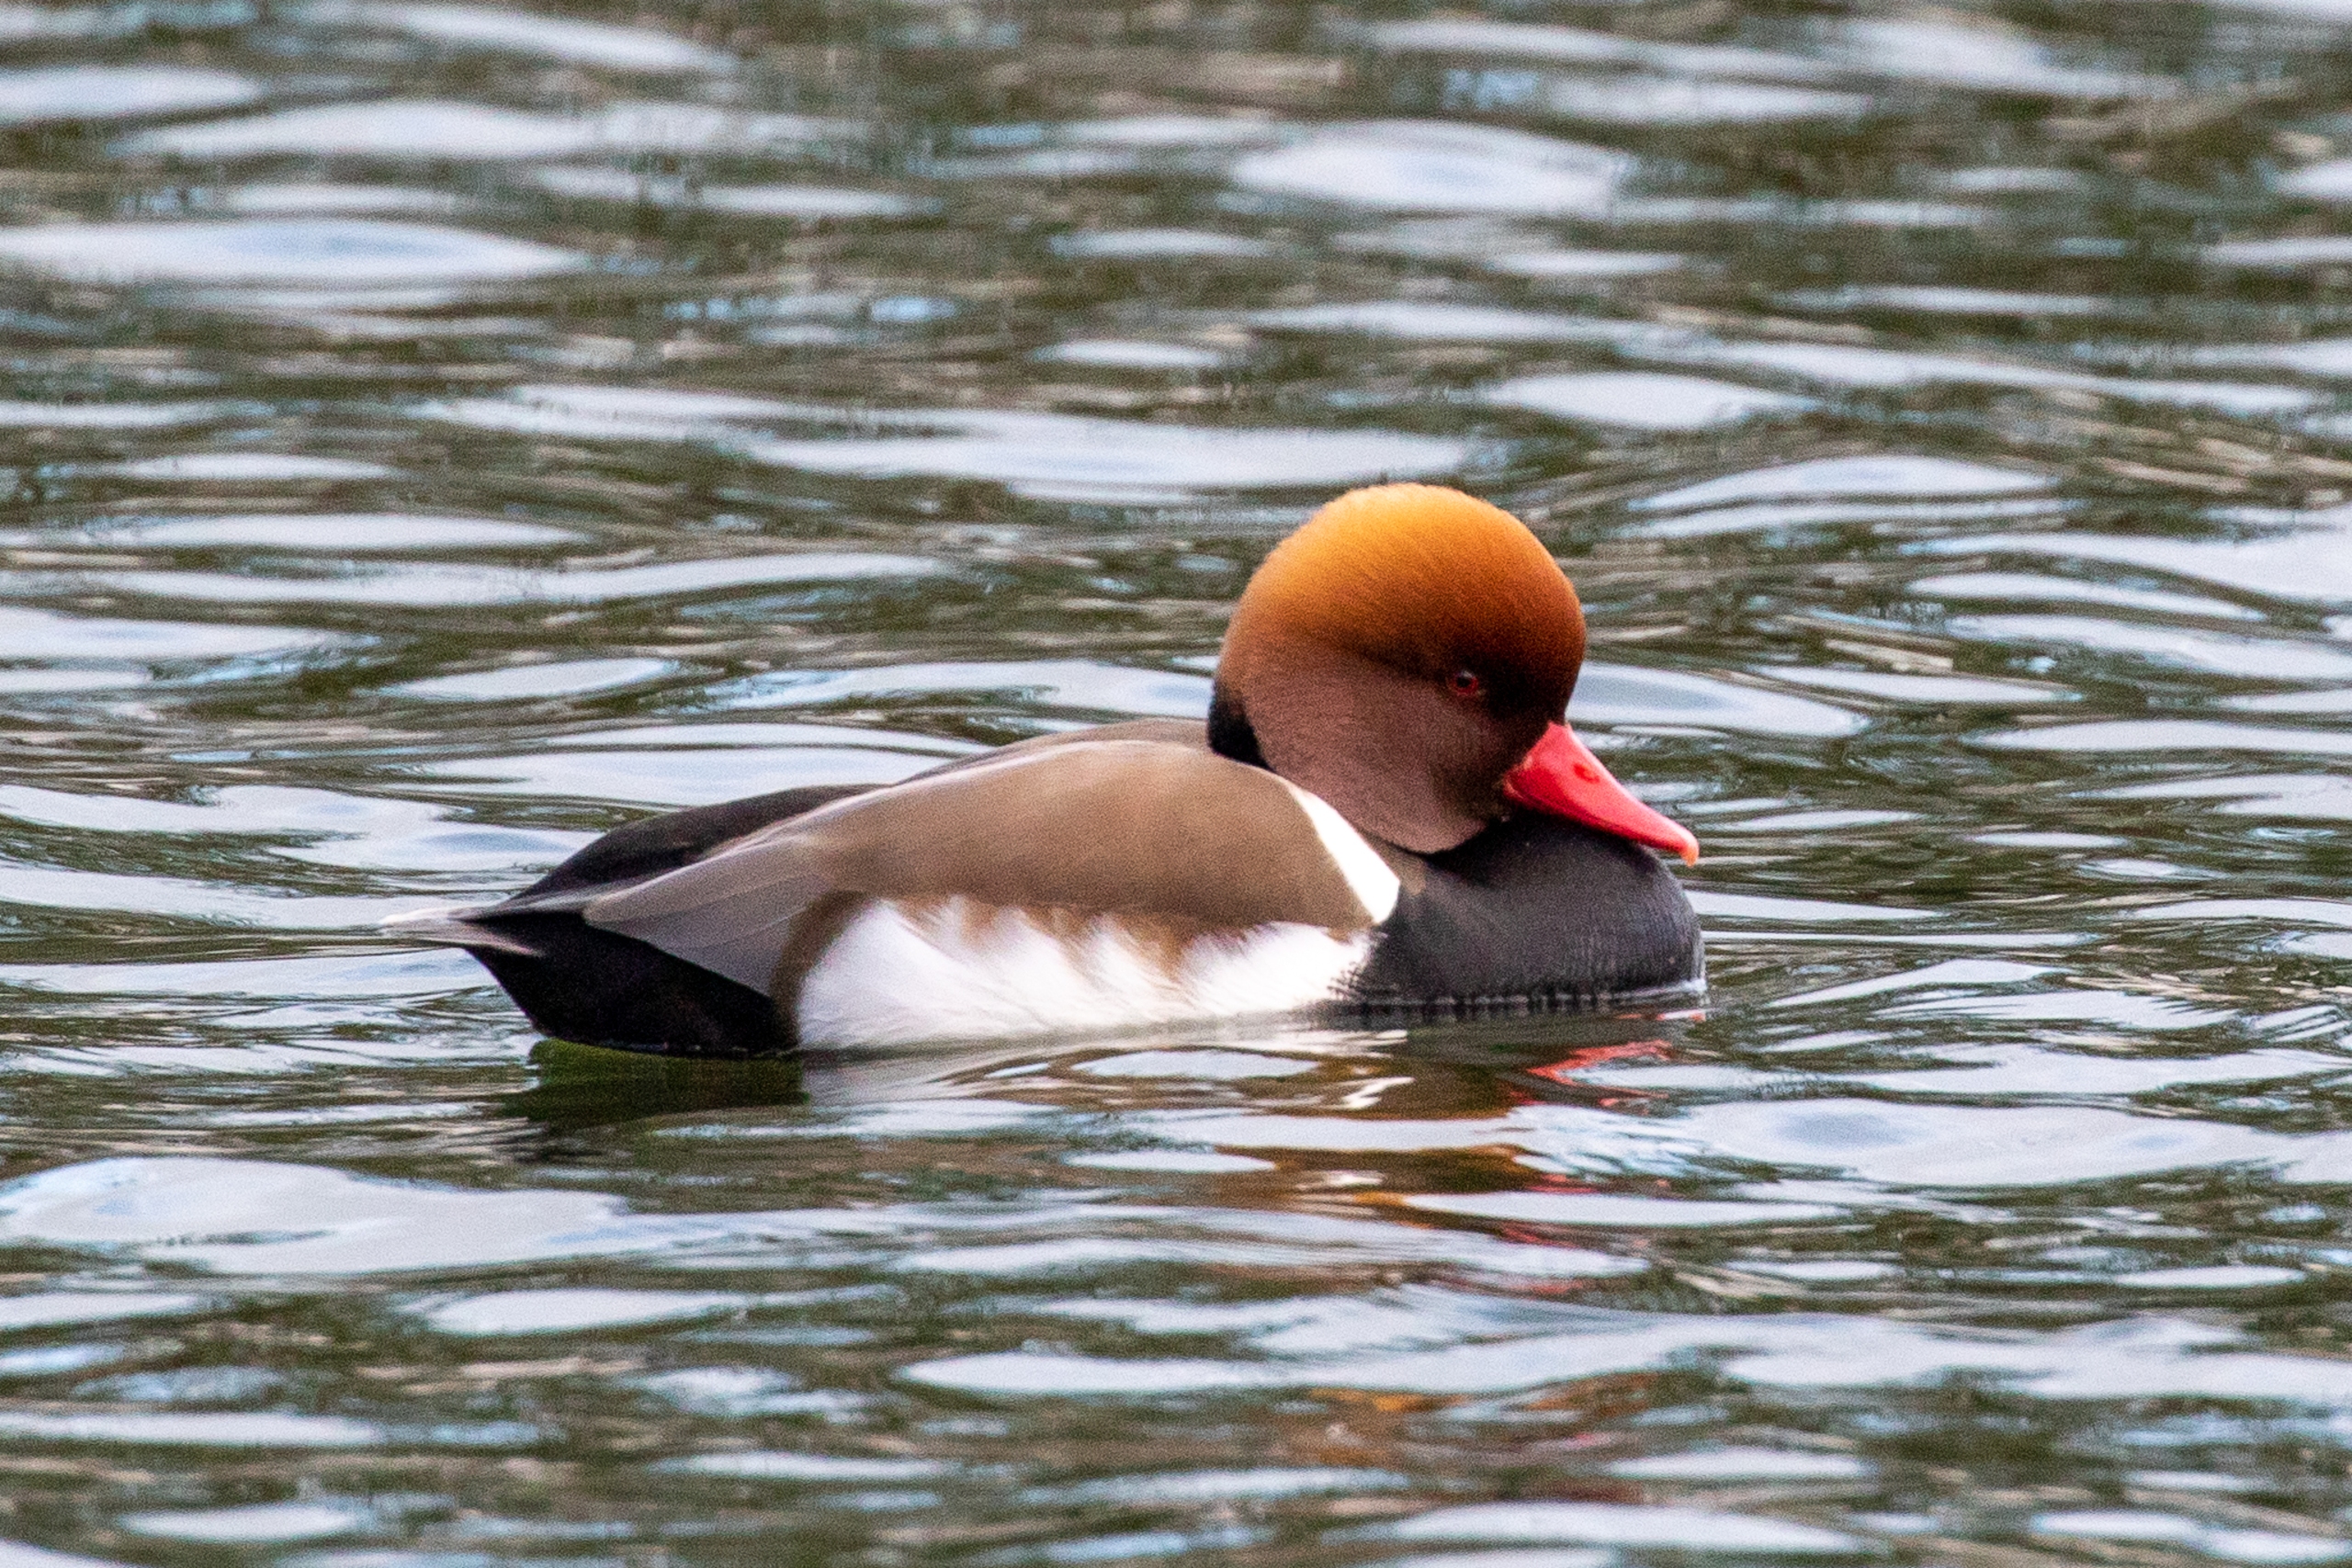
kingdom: Animalia
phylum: Chordata
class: Aves
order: Anseriformes
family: Anatidae
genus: Netta
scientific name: Netta rufina
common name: Rødhovedet and
